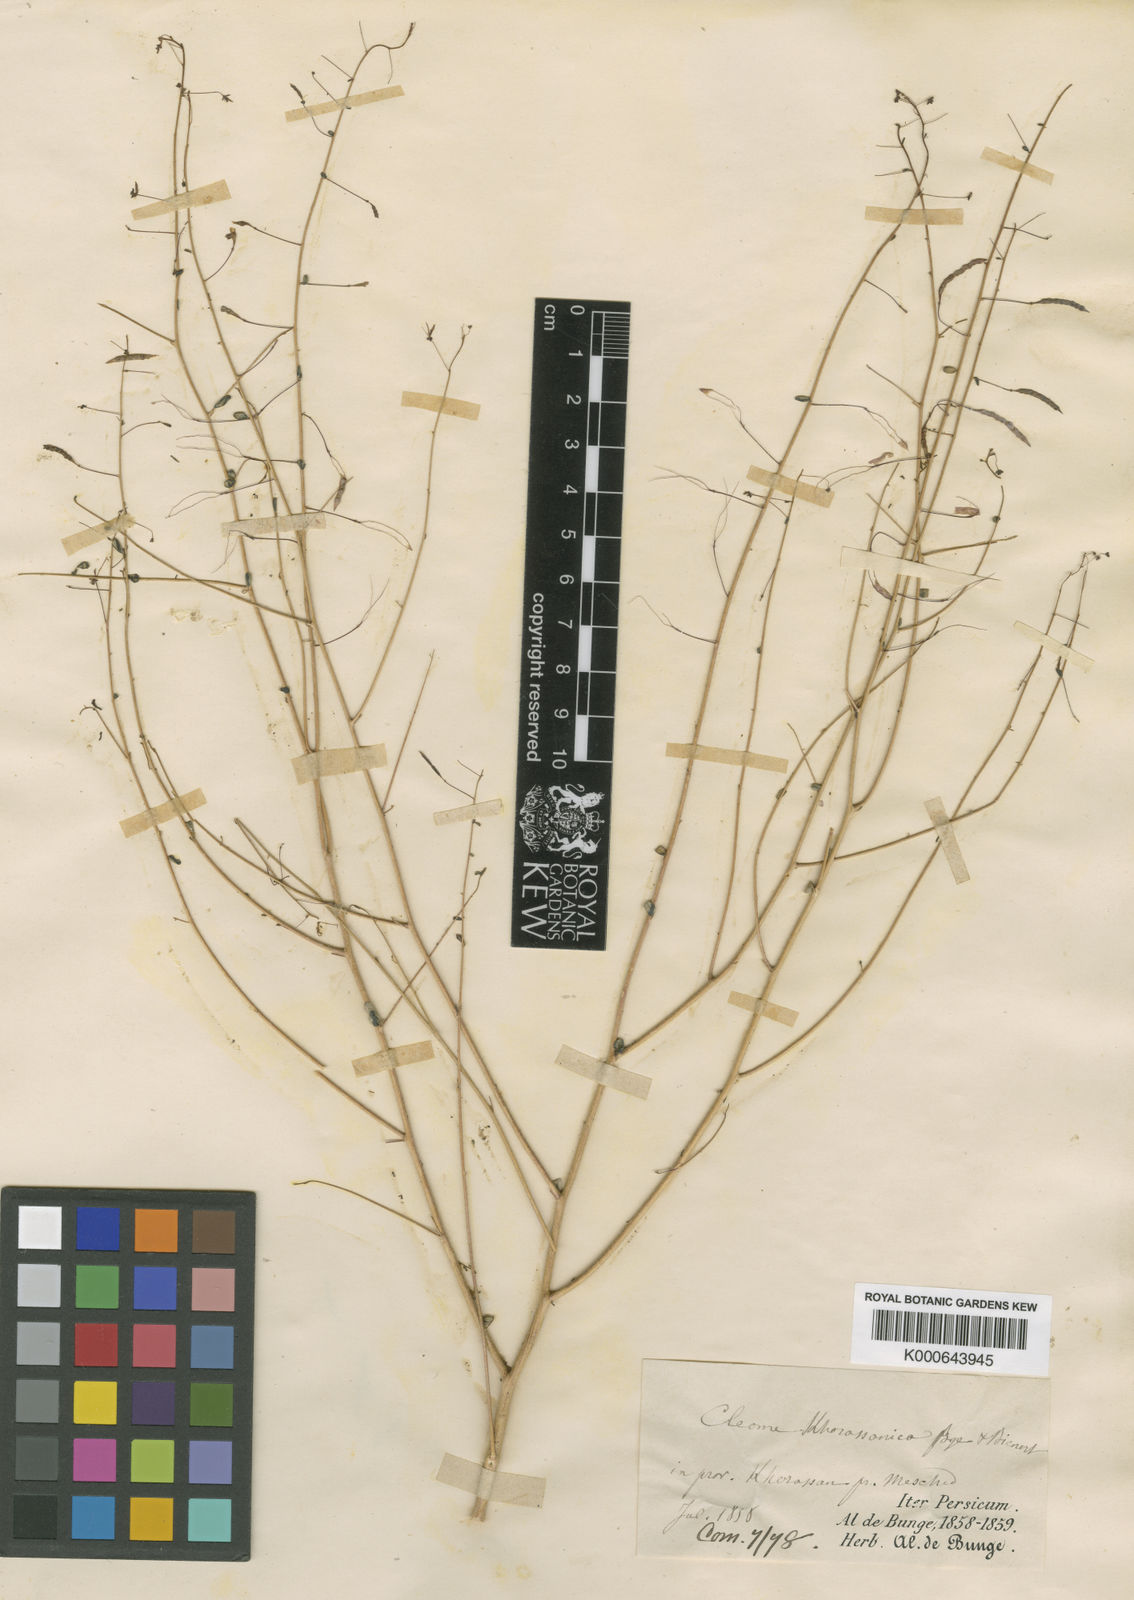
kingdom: Plantae
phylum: Tracheophyta
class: Magnoliopsida
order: Brassicales
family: Cleomaceae
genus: Cleome
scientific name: Cleome khorassanica
